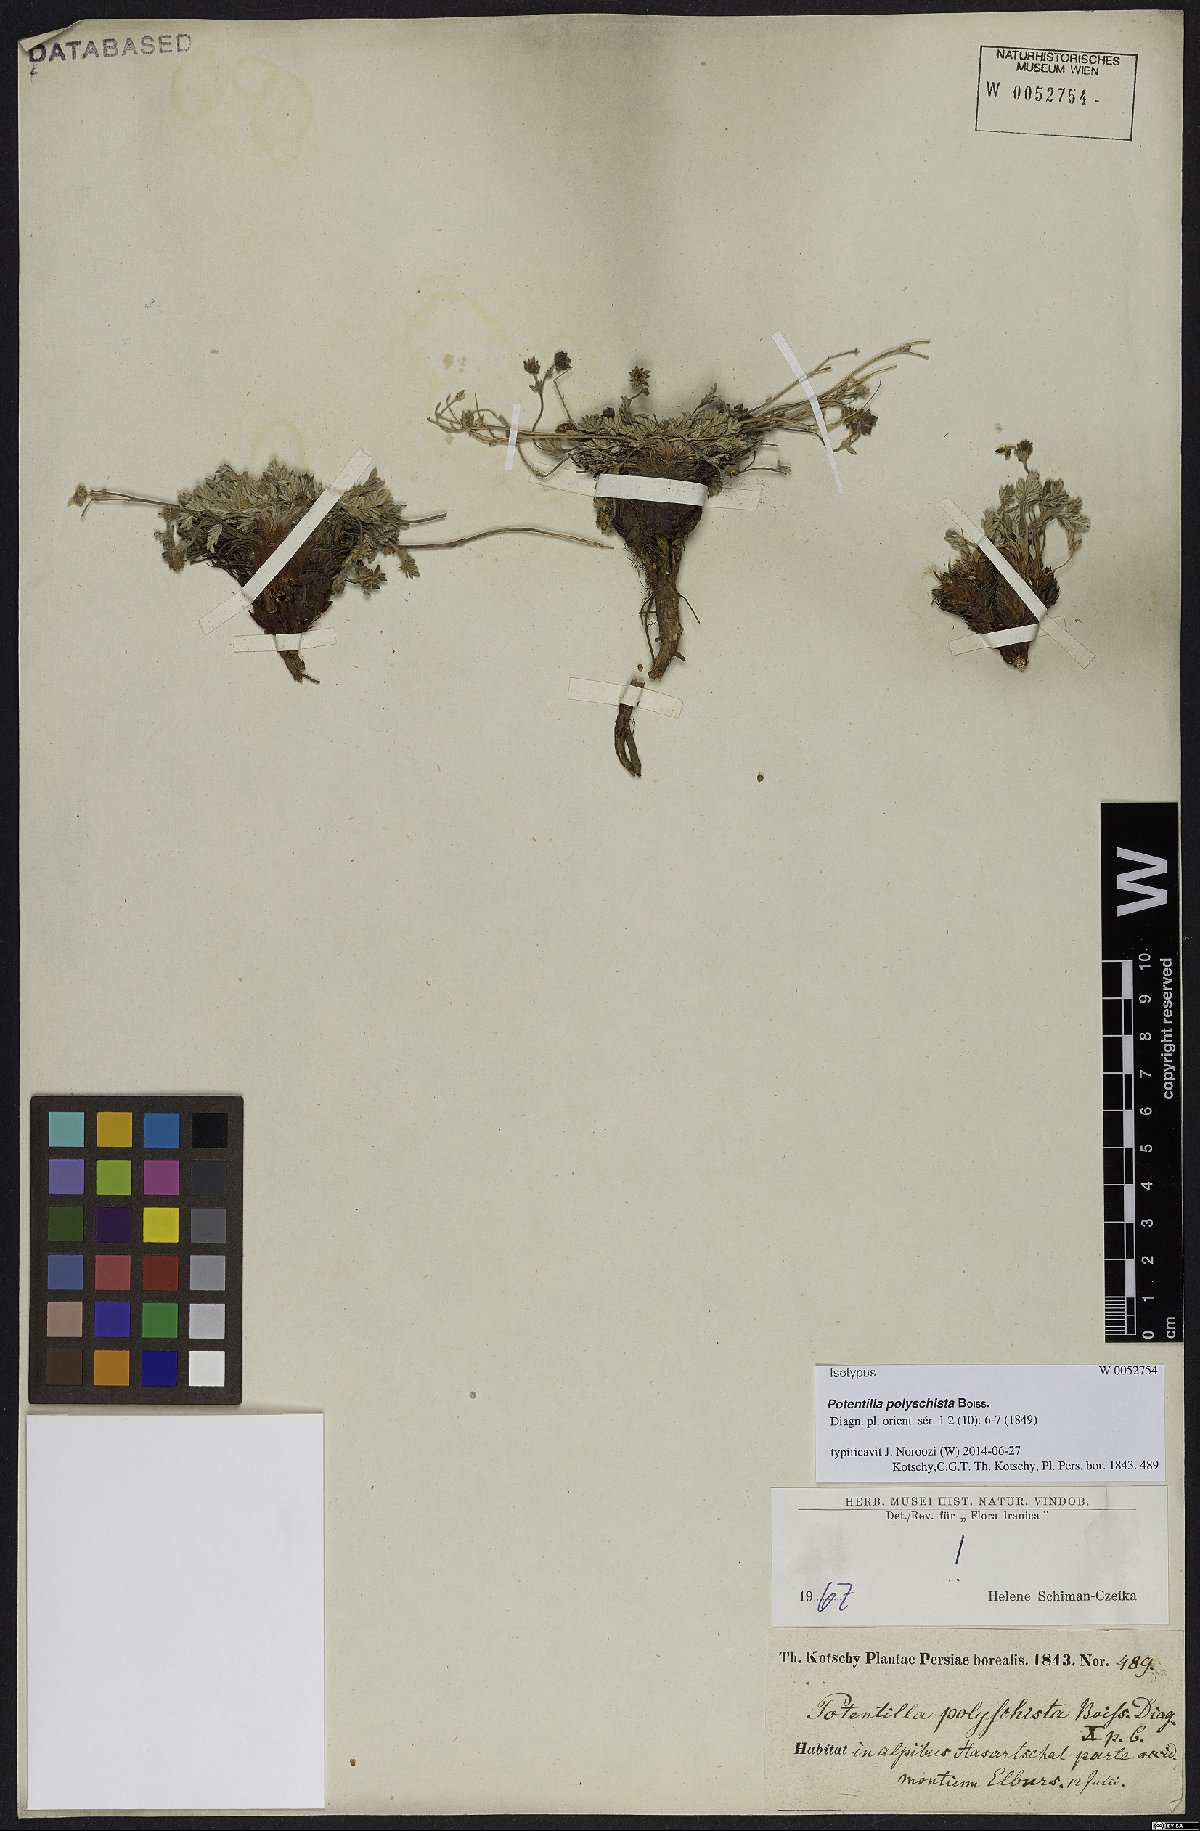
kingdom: Plantae
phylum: Tracheophyta
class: Magnoliopsida
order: Rosales
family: Rosaceae
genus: Potentilla
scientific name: Potentilla sericea
